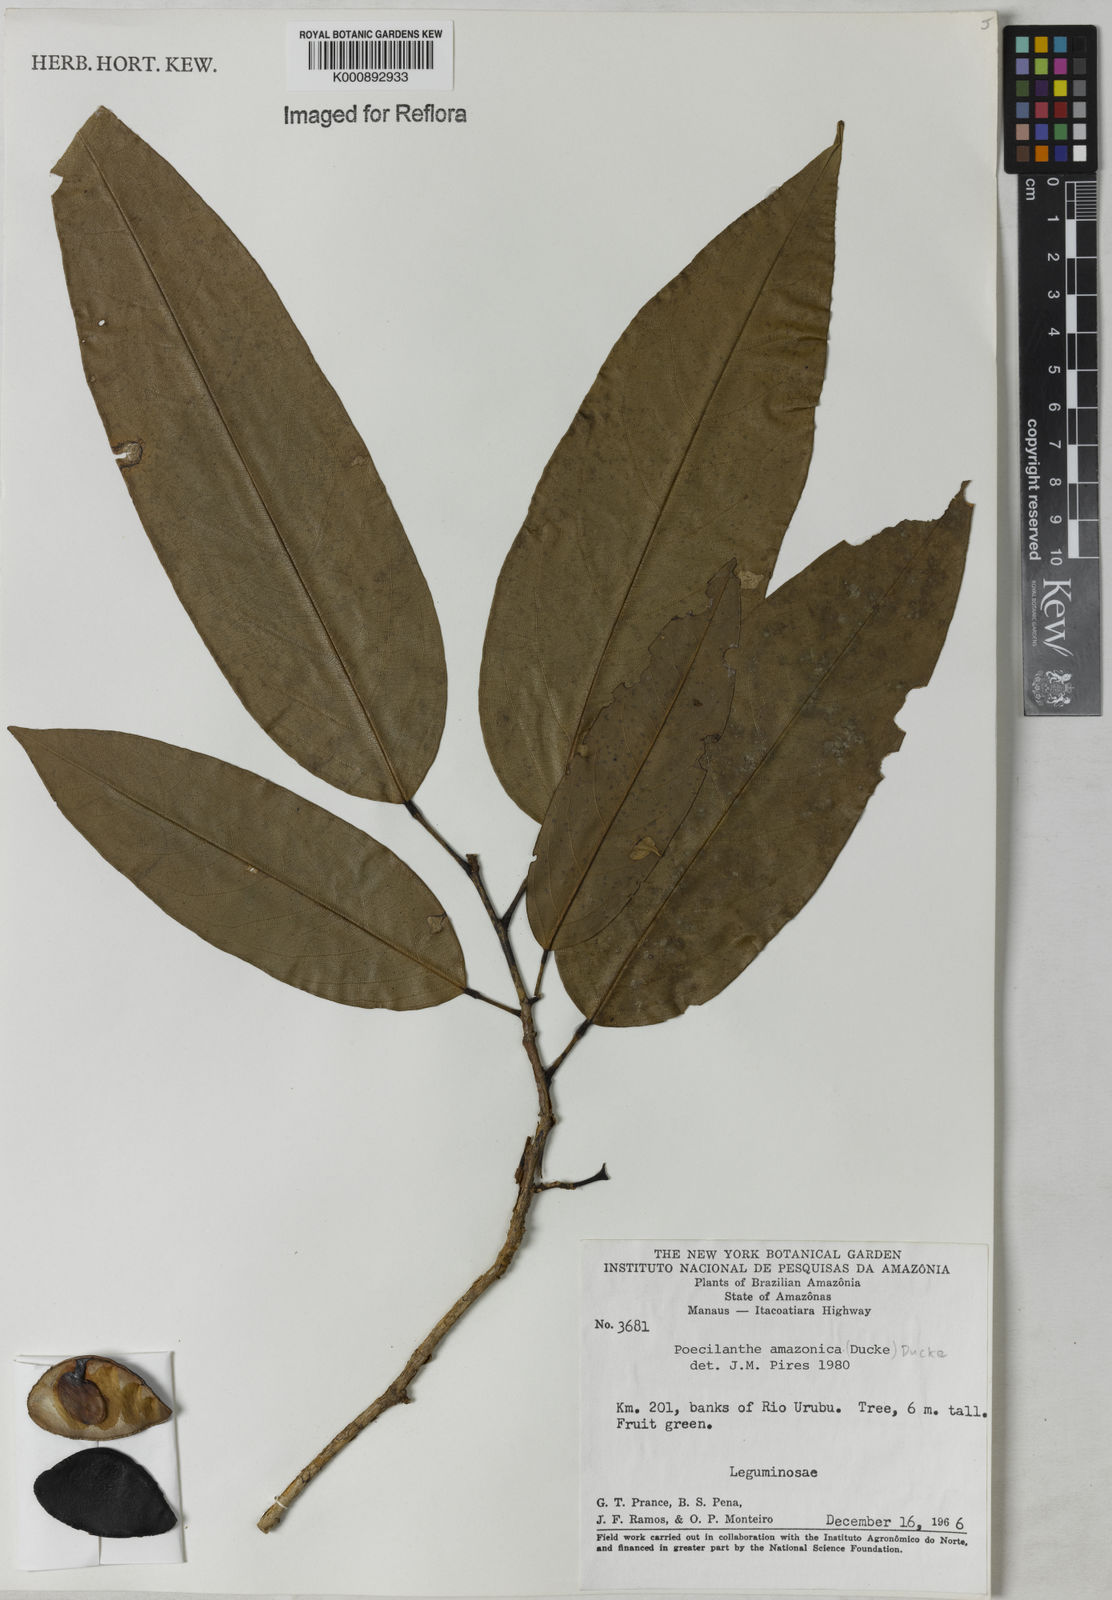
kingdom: Plantae
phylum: Tracheophyta
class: Magnoliopsida
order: Fabales
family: Fabaceae
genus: Limadendron
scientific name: Limadendron amazonicum
